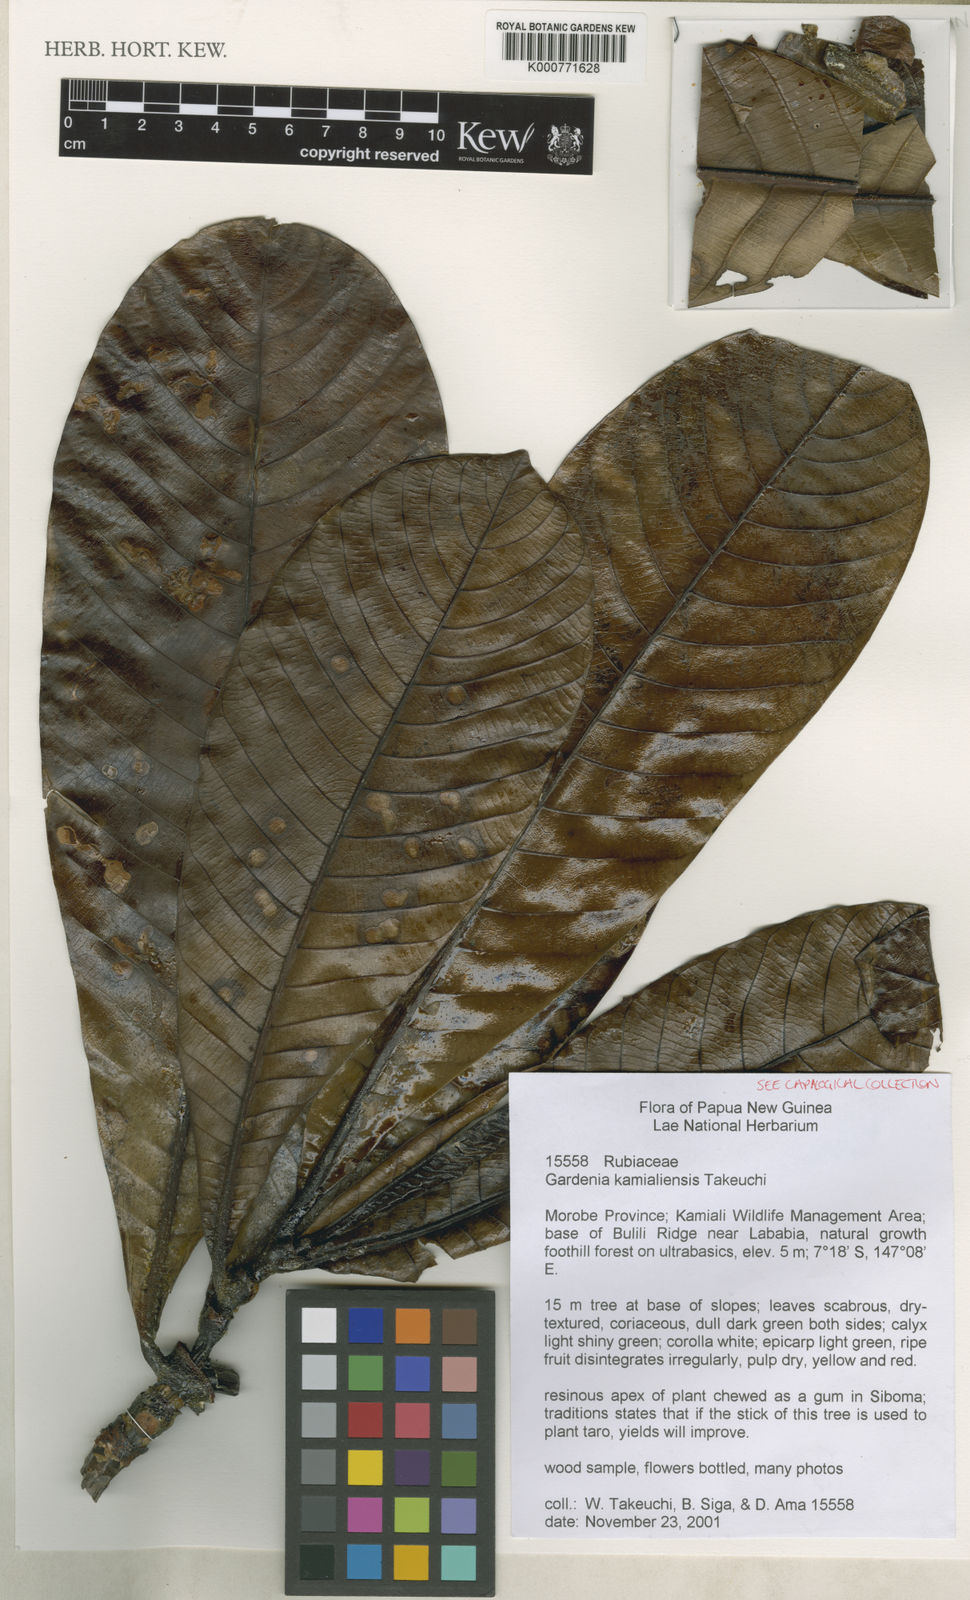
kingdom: Plantae
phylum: Tracheophyta
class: Magnoliopsida
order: Gentianales
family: Rubiaceae
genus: Gardenia
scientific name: Gardenia kamialiensis
